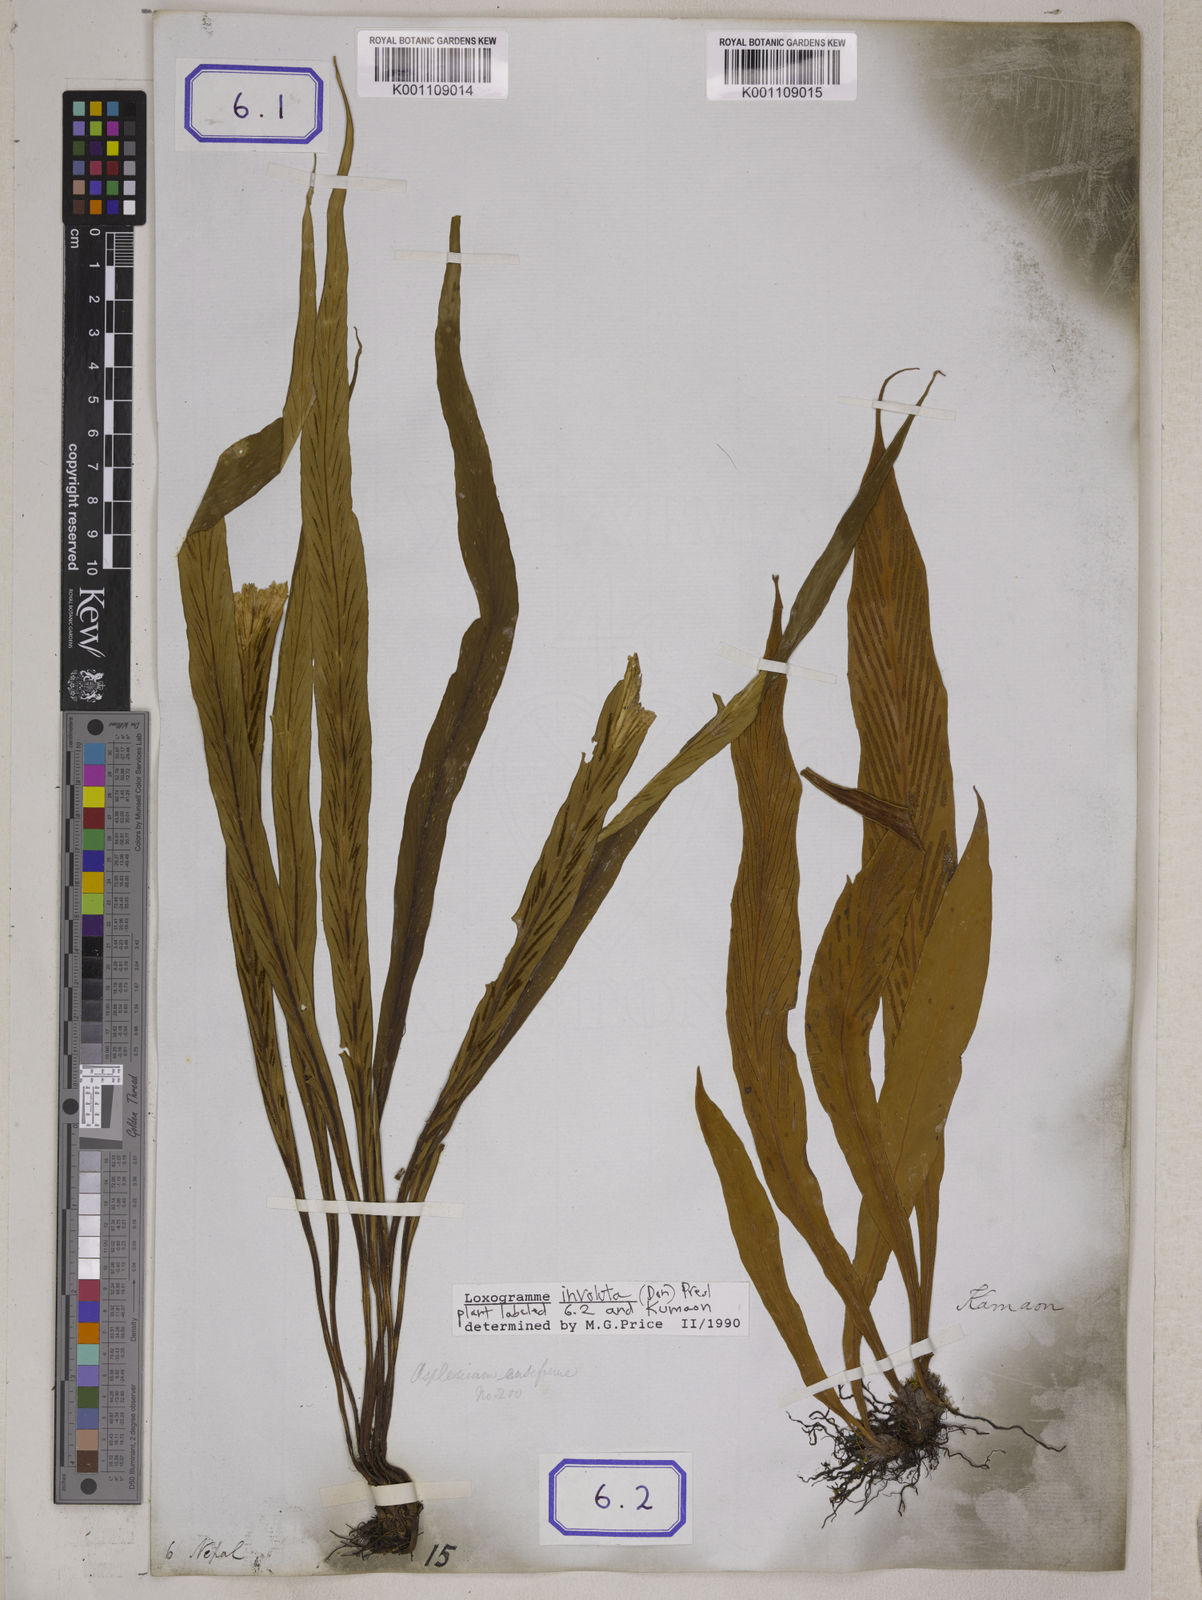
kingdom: Plantae
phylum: Tracheophyta
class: Polypodiopsida
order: Polypodiales
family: Polypodiaceae
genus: Loxogramme
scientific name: Loxogramme involuta
